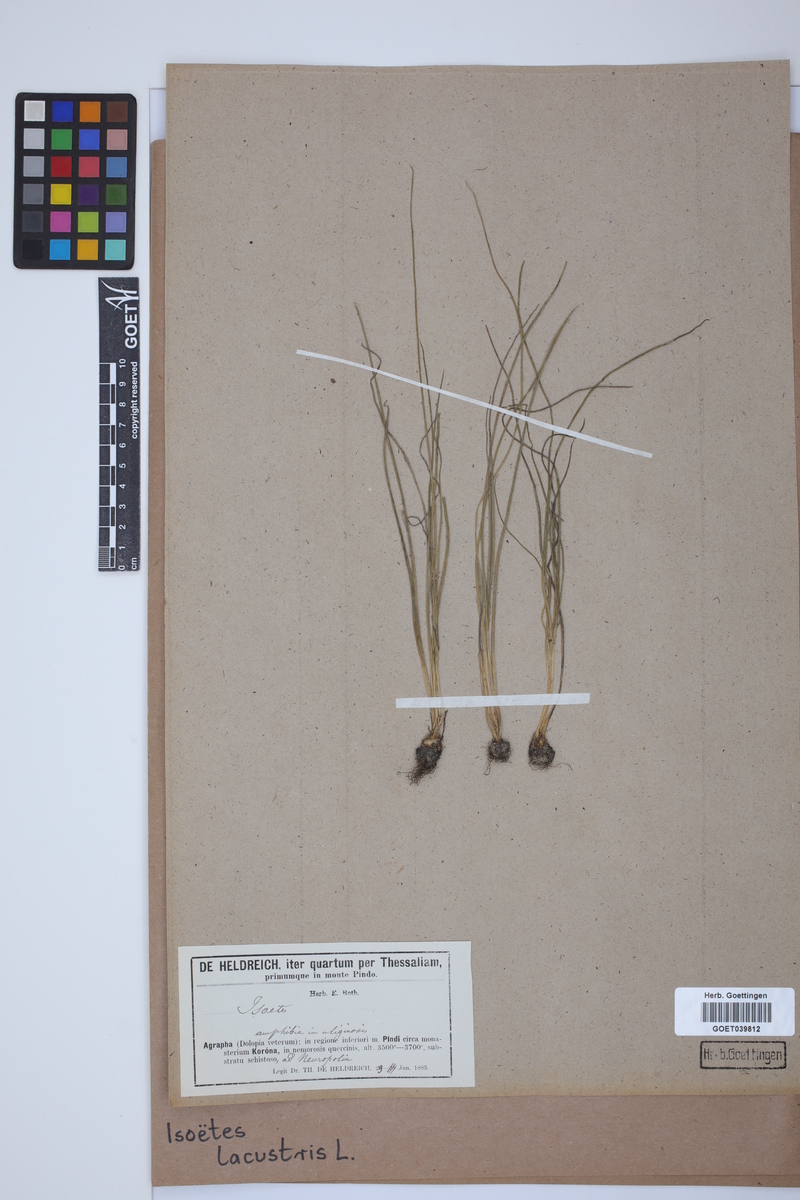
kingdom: Plantae
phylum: Tracheophyta
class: Lycopodiopsida
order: Isoetales
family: Isoetaceae
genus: Isoetes
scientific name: Isoetes lacustris
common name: Common quillwort
